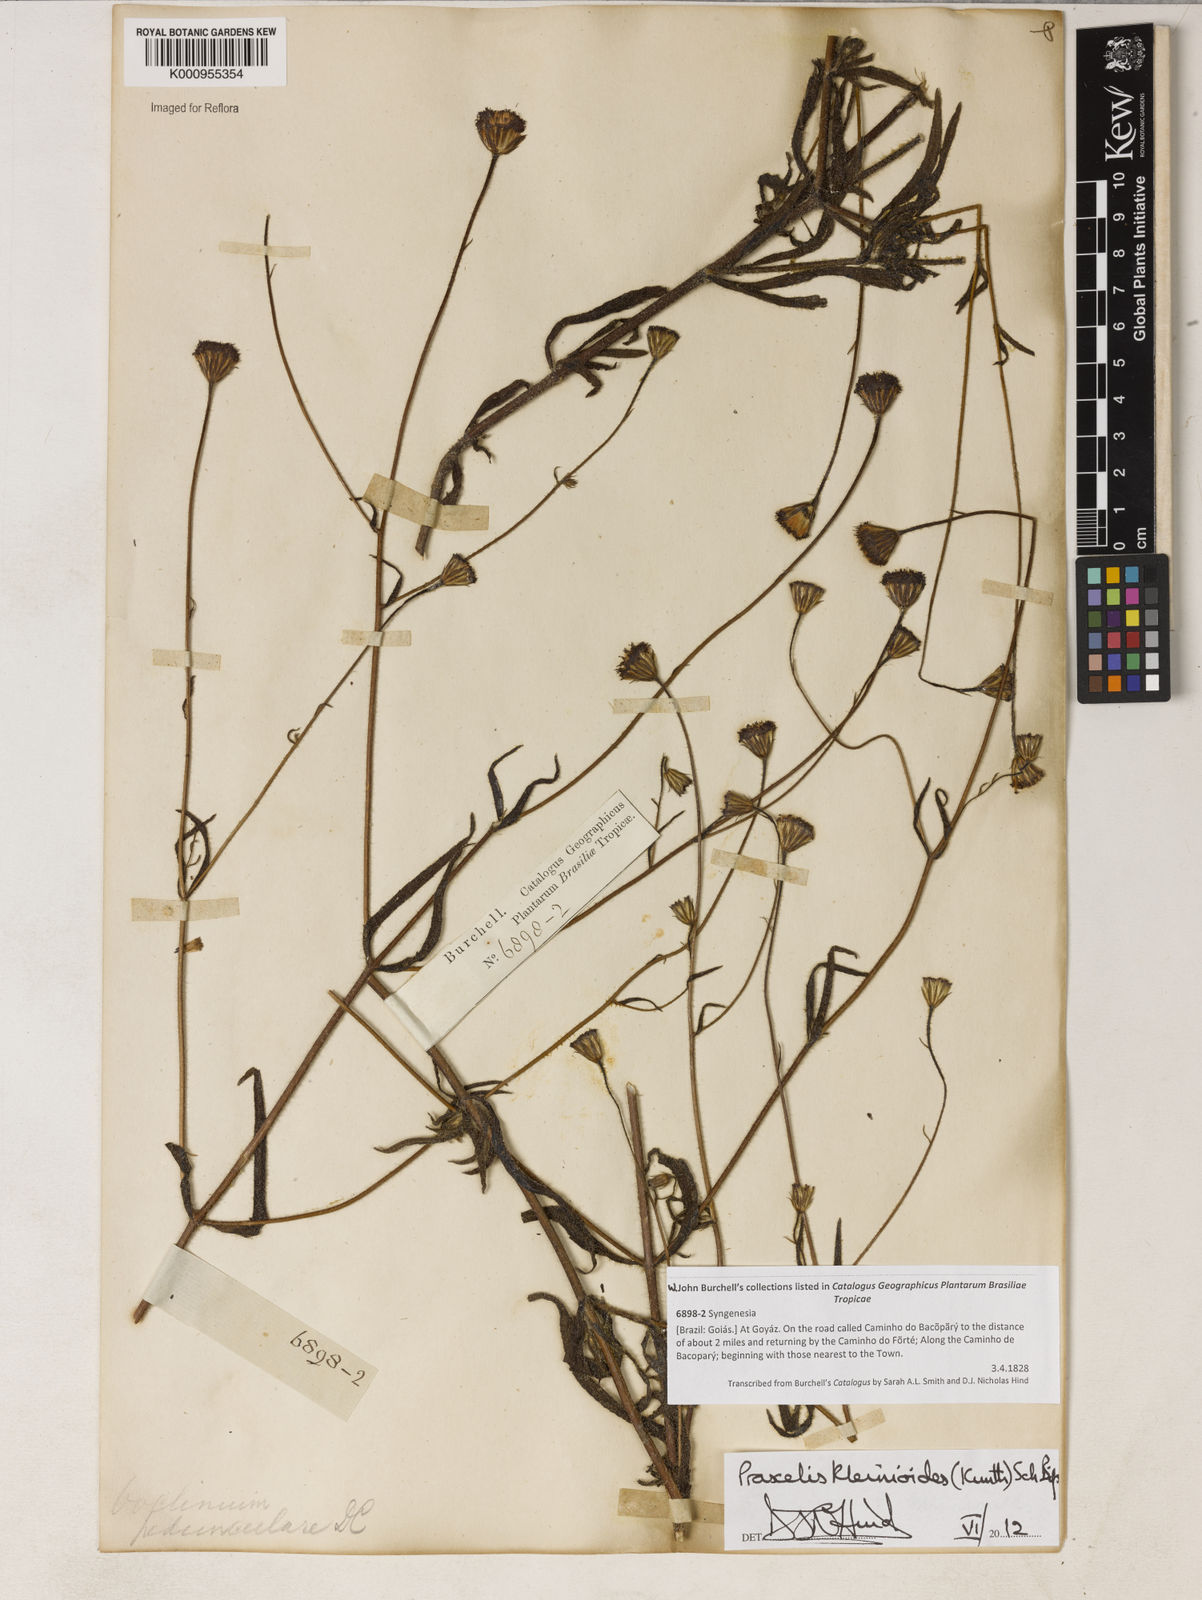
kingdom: Plantae
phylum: Tracheophyta
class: Magnoliopsida
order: Asterales
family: Asteraceae
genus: Praxelis
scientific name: Praxelis kleinioides
